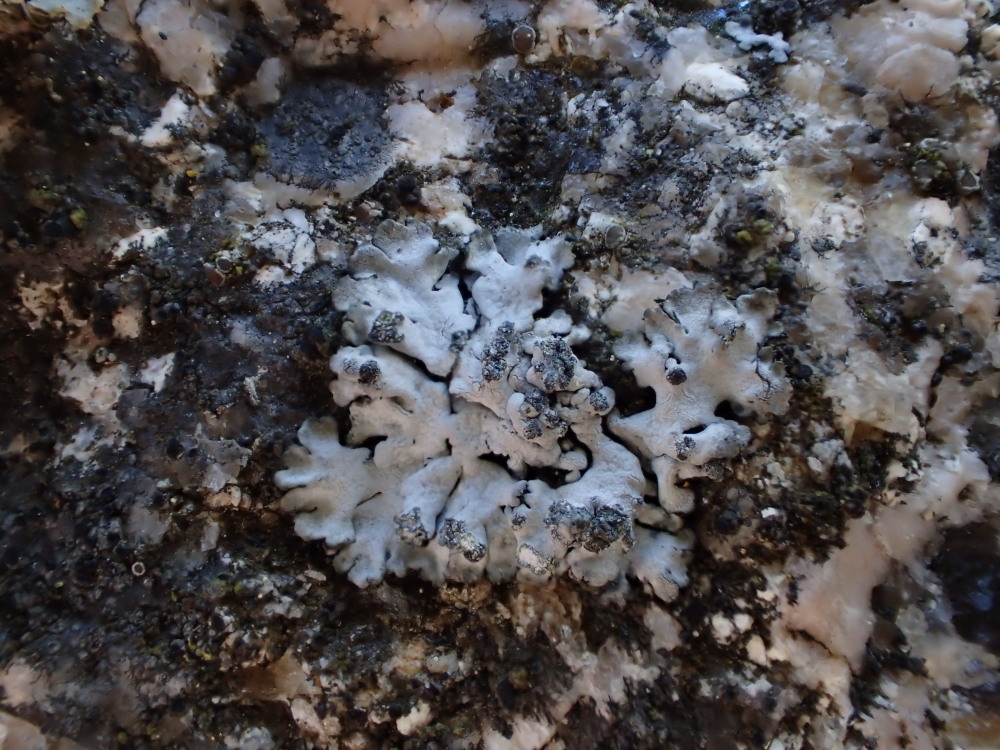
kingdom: Fungi
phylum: Ascomycota
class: Lecanoromycetes
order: Caliciales
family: Physciaceae
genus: Phaeophyscia
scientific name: Phaeophyscia orbicularis
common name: grågrøn rosetlav
